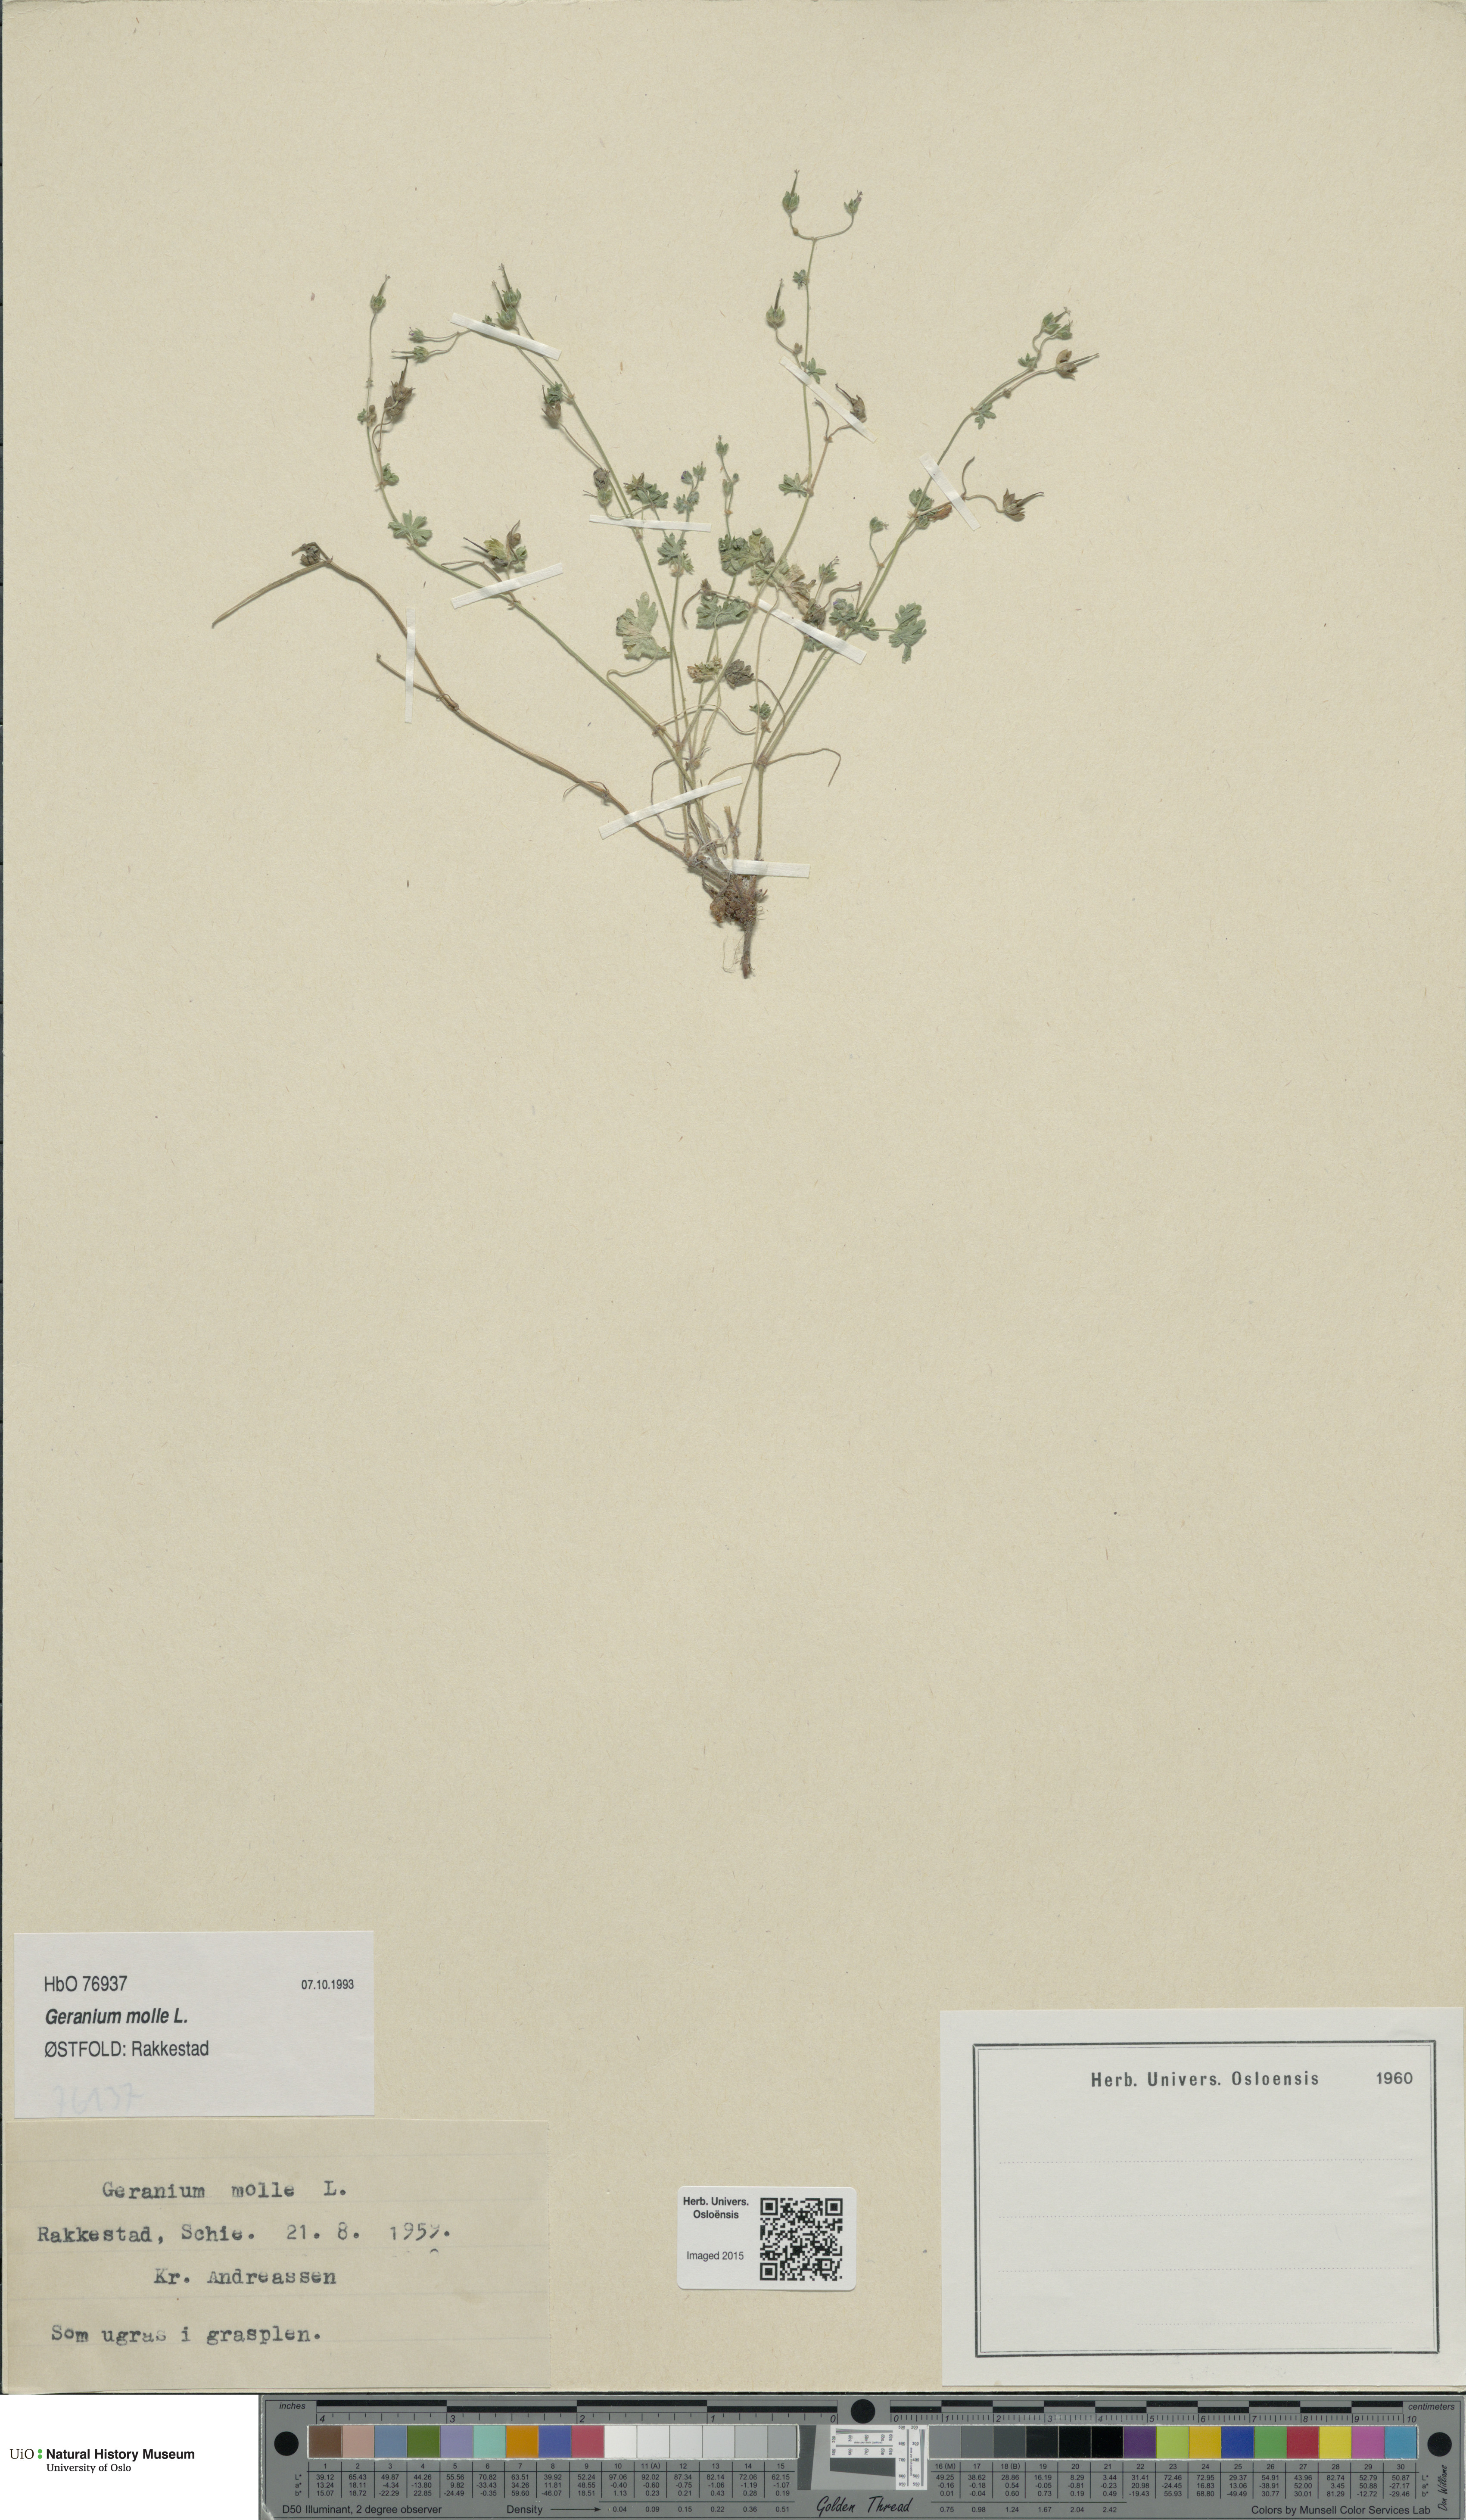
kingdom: Plantae
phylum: Tracheophyta
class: Magnoliopsida
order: Geraniales
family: Geraniaceae
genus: Geranium
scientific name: Geranium molle
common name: Dove's-foot crane's-bill
